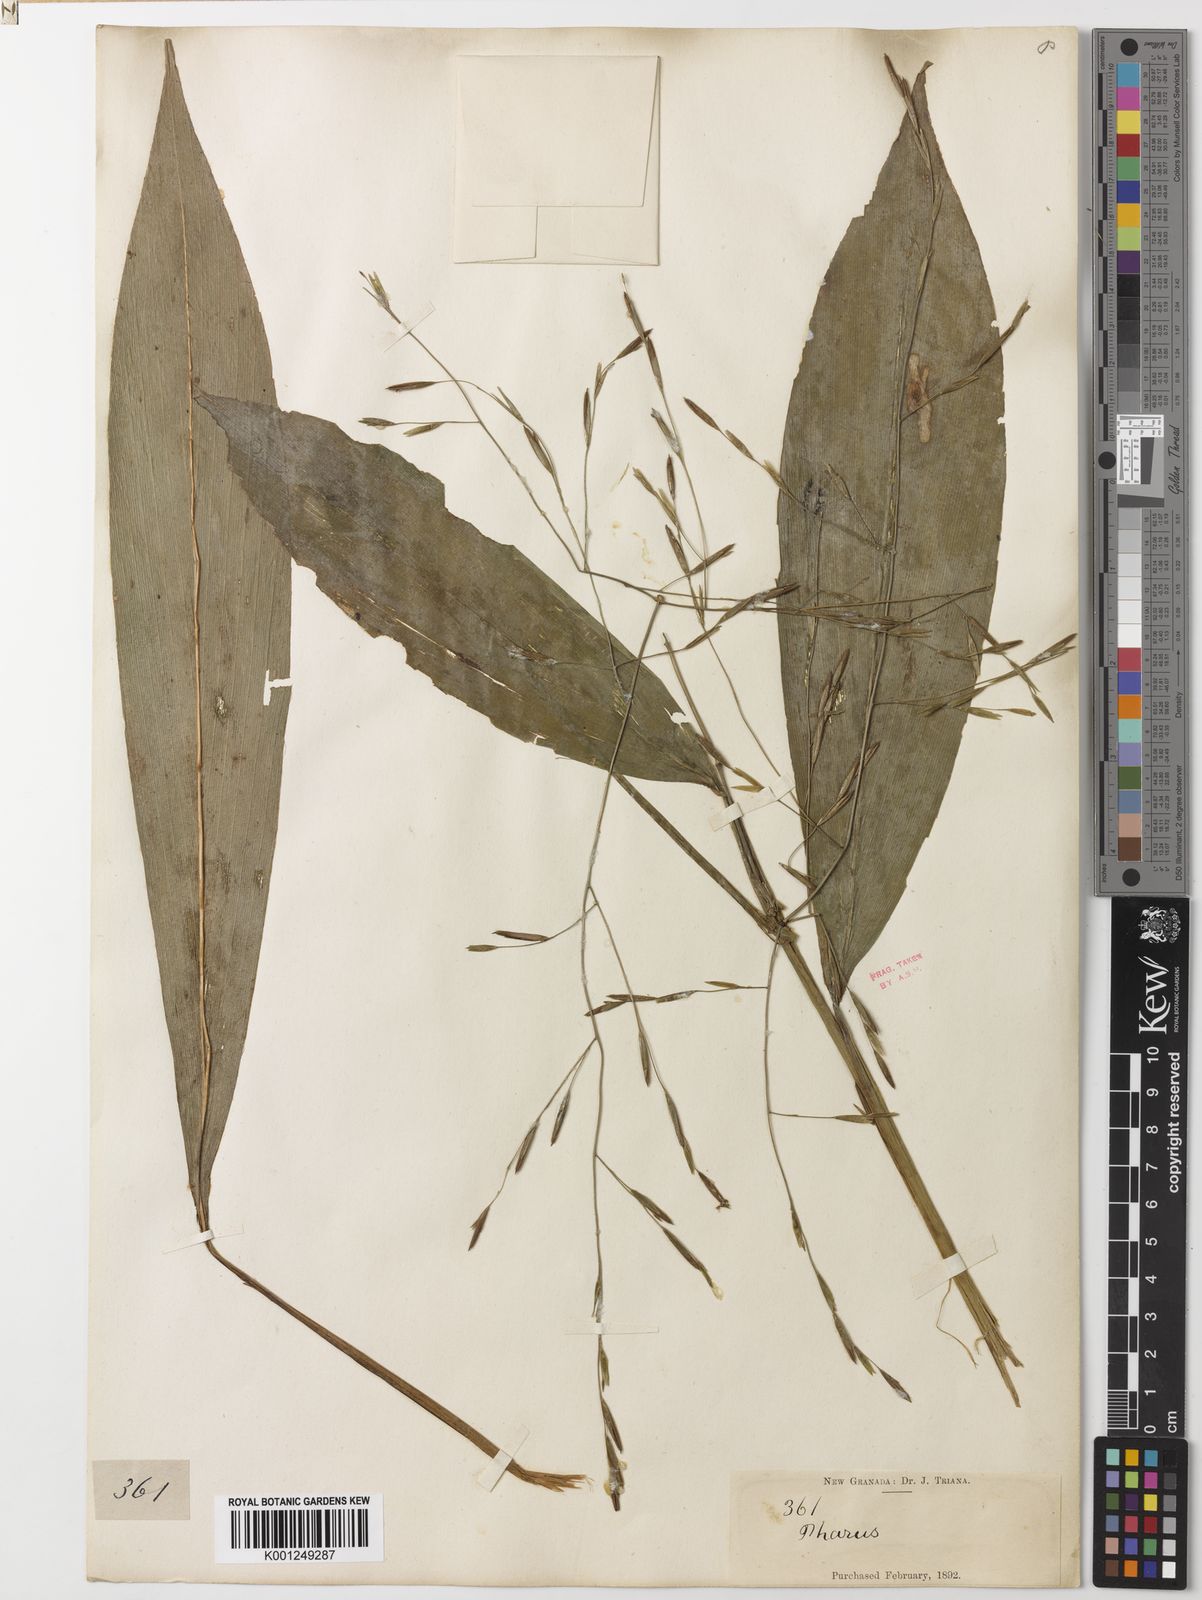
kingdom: Plantae
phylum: Tracheophyta
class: Liliopsida
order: Poales
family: Poaceae
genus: Pharus
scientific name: Pharus
